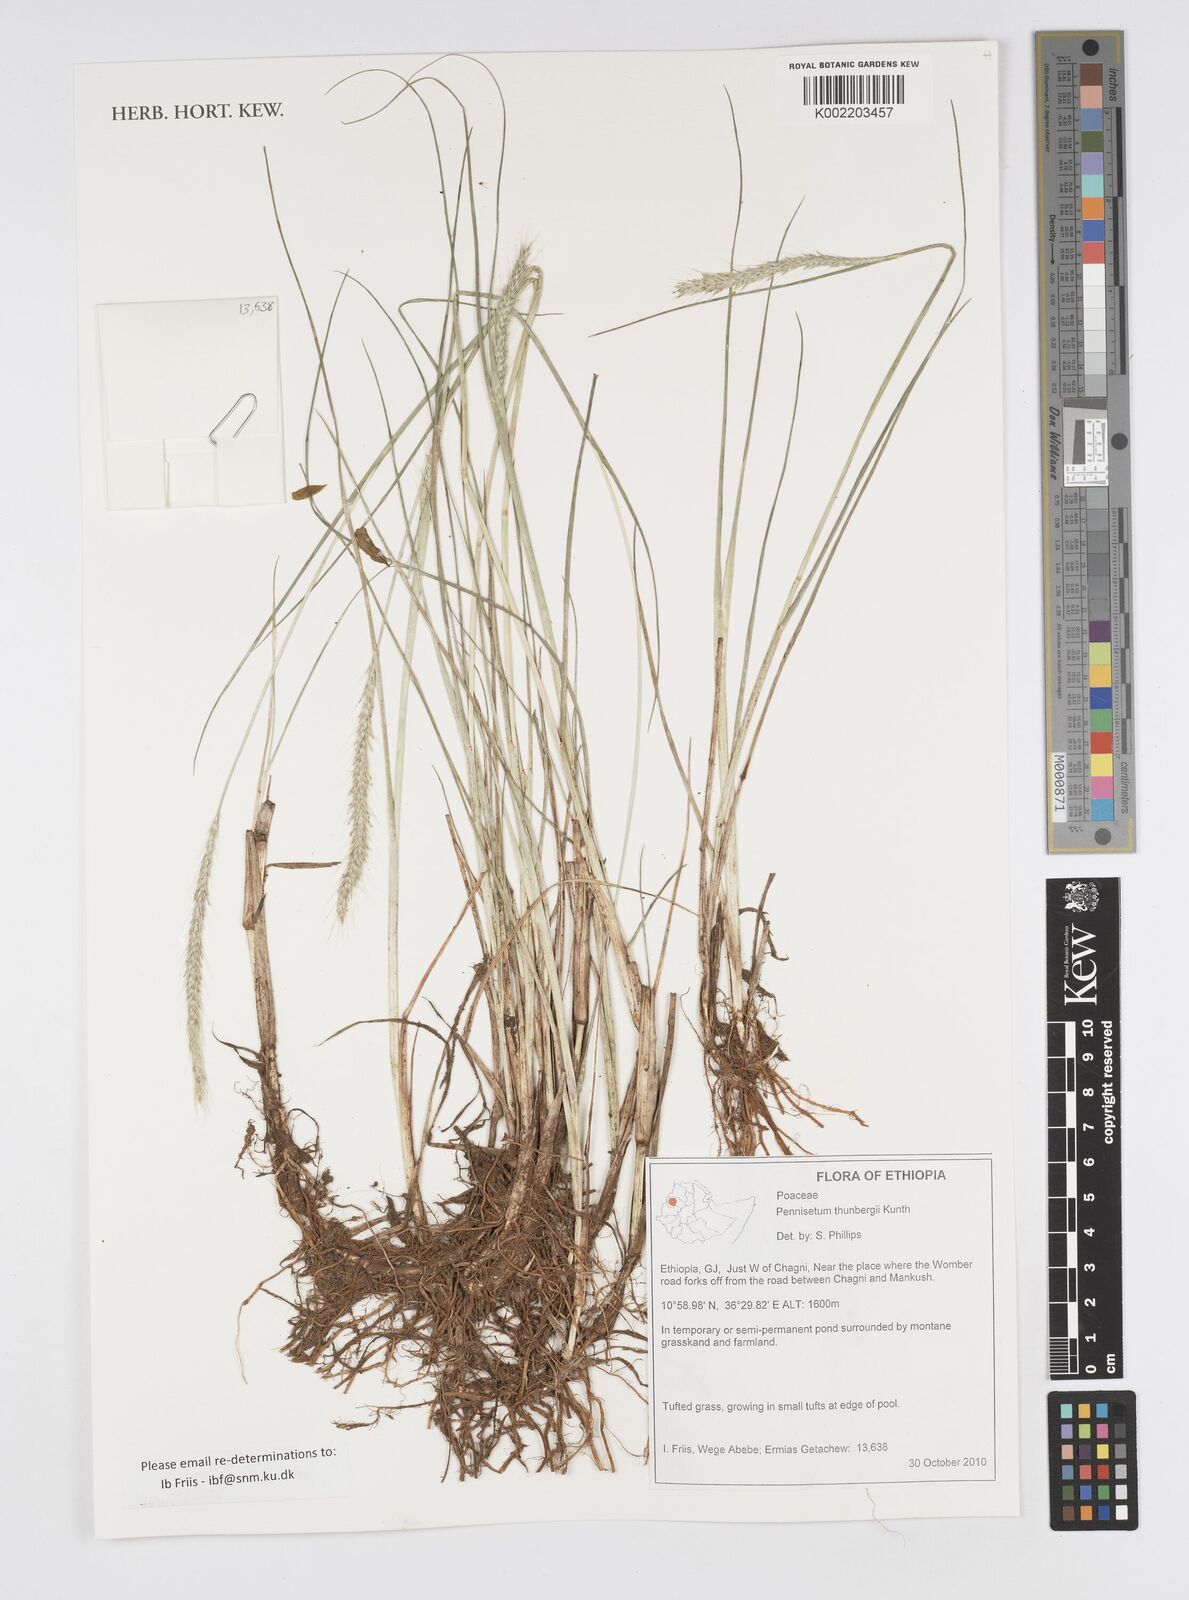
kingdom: Plantae
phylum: Tracheophyta
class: Liliopsida
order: Poales
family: Poaceae
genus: Cenchrus
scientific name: Cenchrus geniculatus
